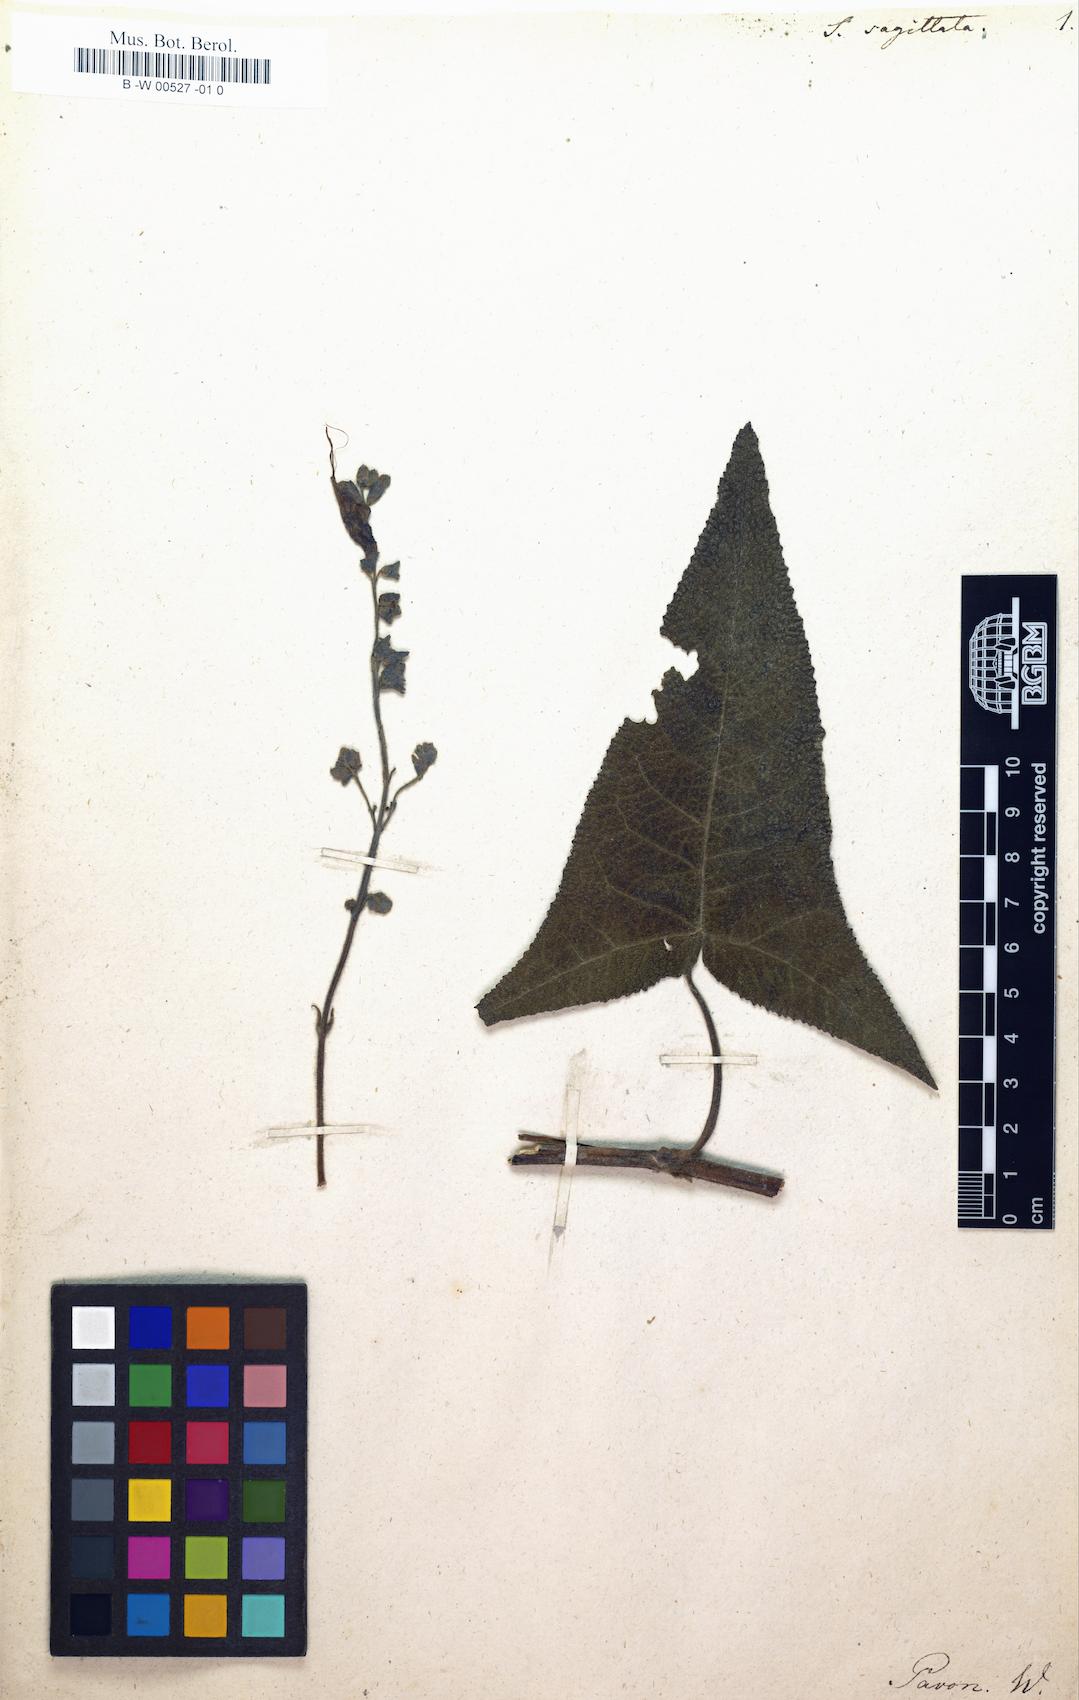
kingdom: Plantae
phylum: Tracheophyta
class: Magnoliopsida
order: Lamiales
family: Lamiaceae
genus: Salvia
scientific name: Salvia sagittata
